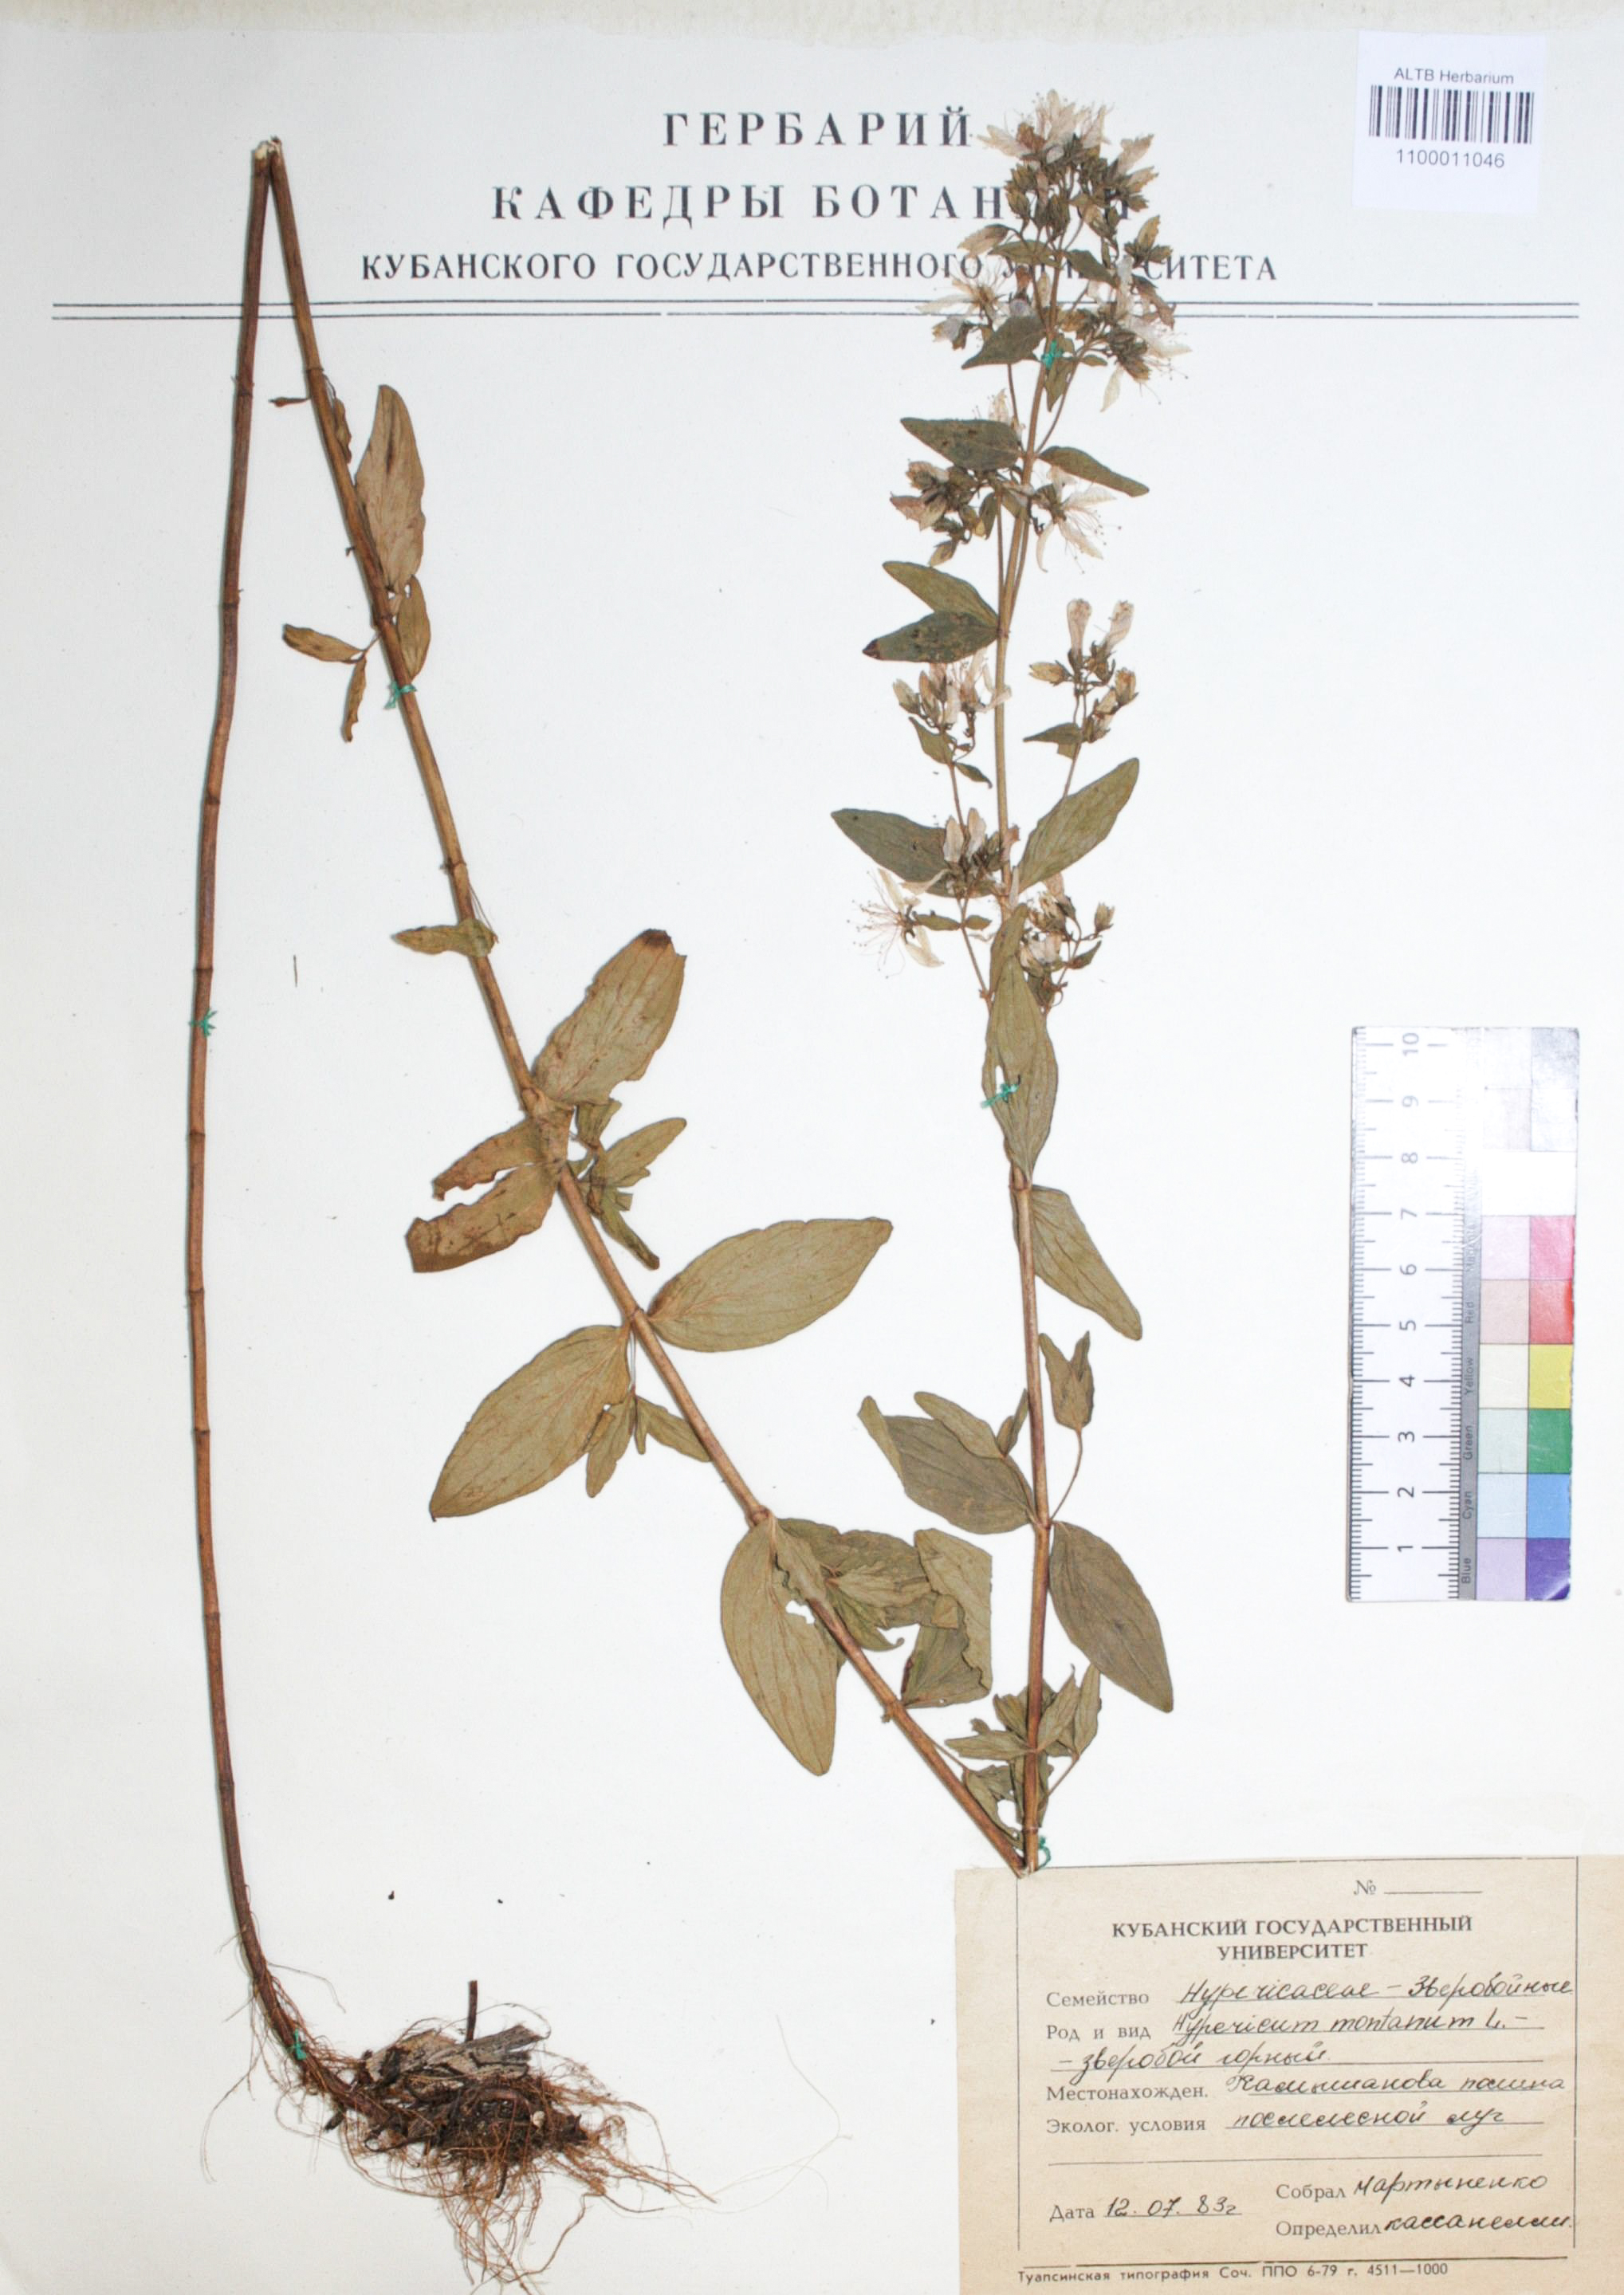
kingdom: Plantae
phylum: Tracheophyta
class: Magnoliopsida
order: Malpighiales
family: Hypericaceae
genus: Hypericum
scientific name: Hypericum montanum
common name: Pale st. john's-wort
